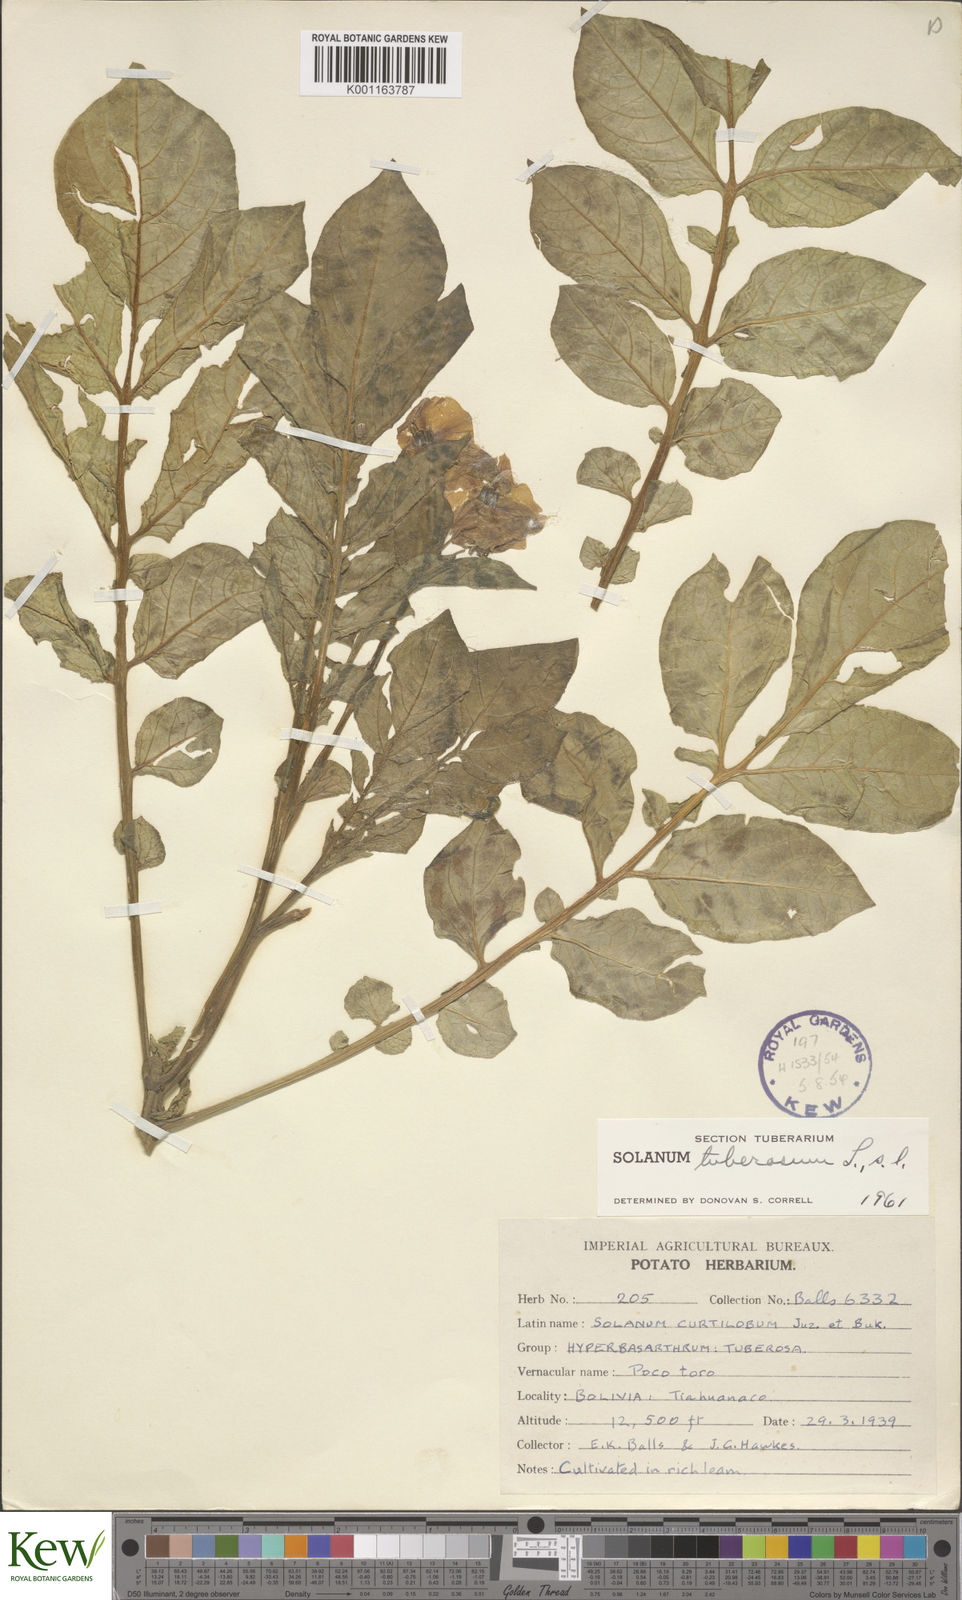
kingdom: Plantae
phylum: Tracheophyta
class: Magnoliopsida
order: Solanales
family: Solanaceae
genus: Solanum
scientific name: Solanum curtilobum
